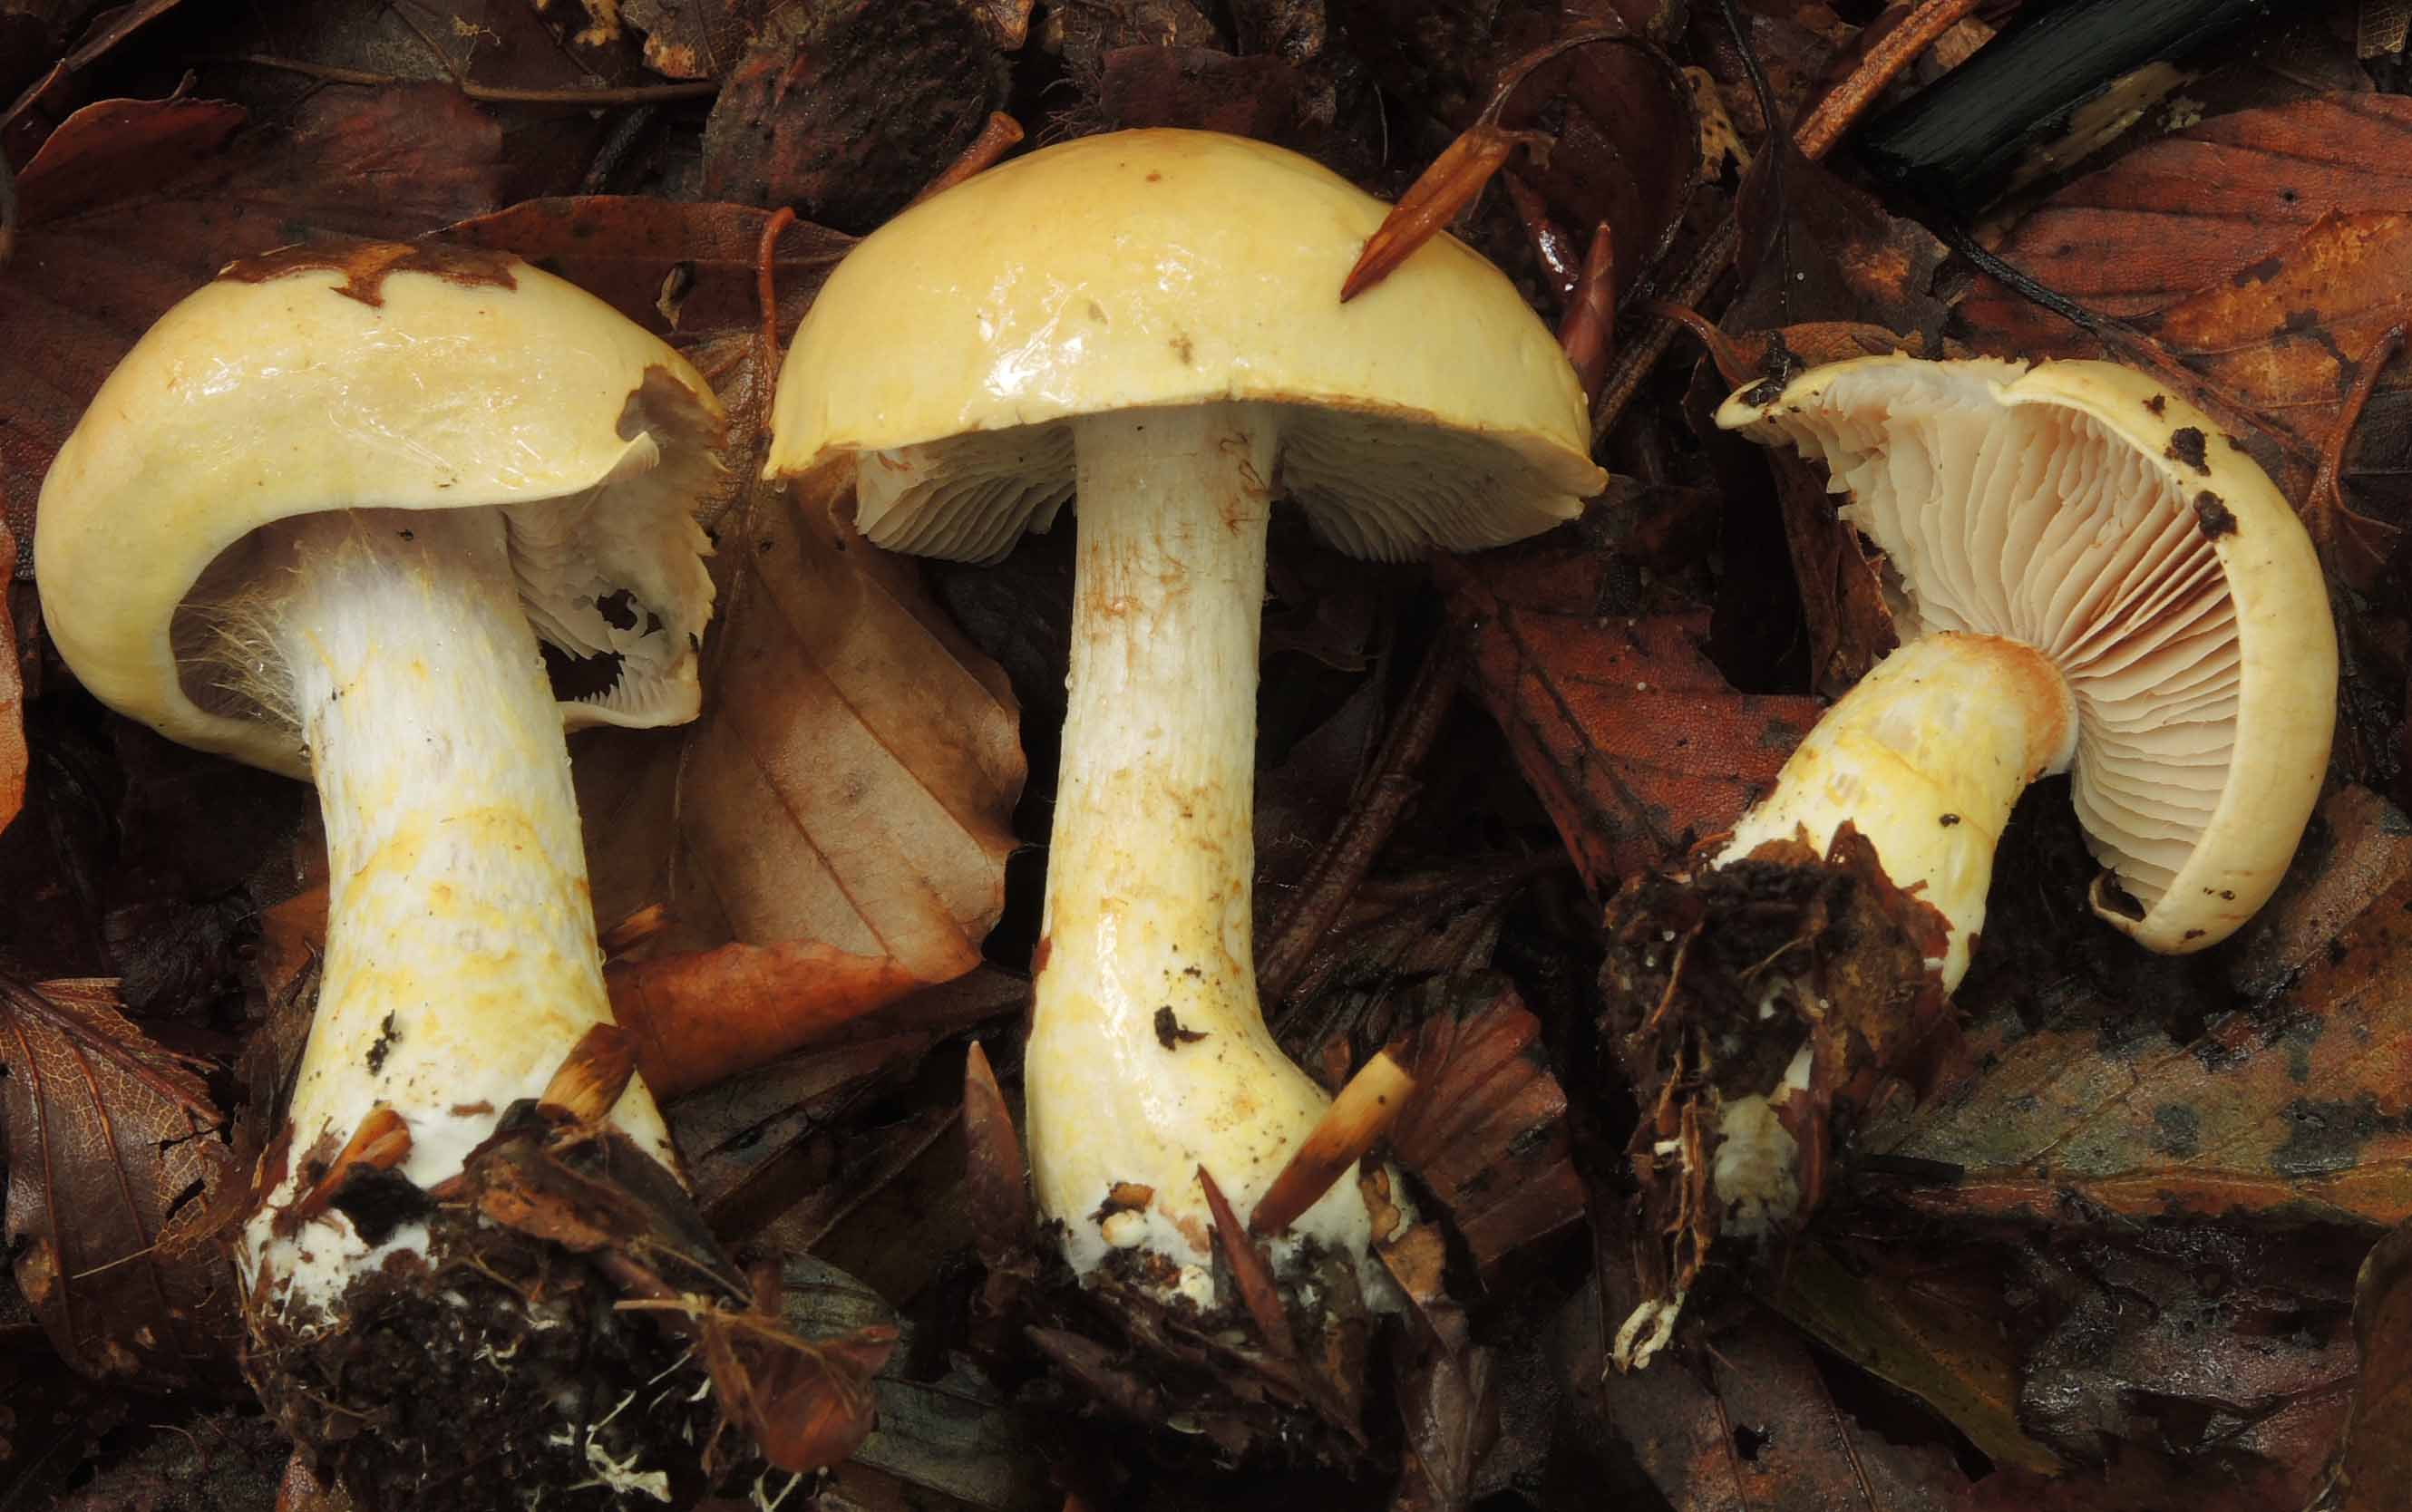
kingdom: Fungi
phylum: Basidiomycota
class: Agaricomycetes
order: Agaricales
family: Cortinariaceae
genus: Phlegmacium
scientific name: Phlegmacium cliduchus
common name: majs-slørhat
